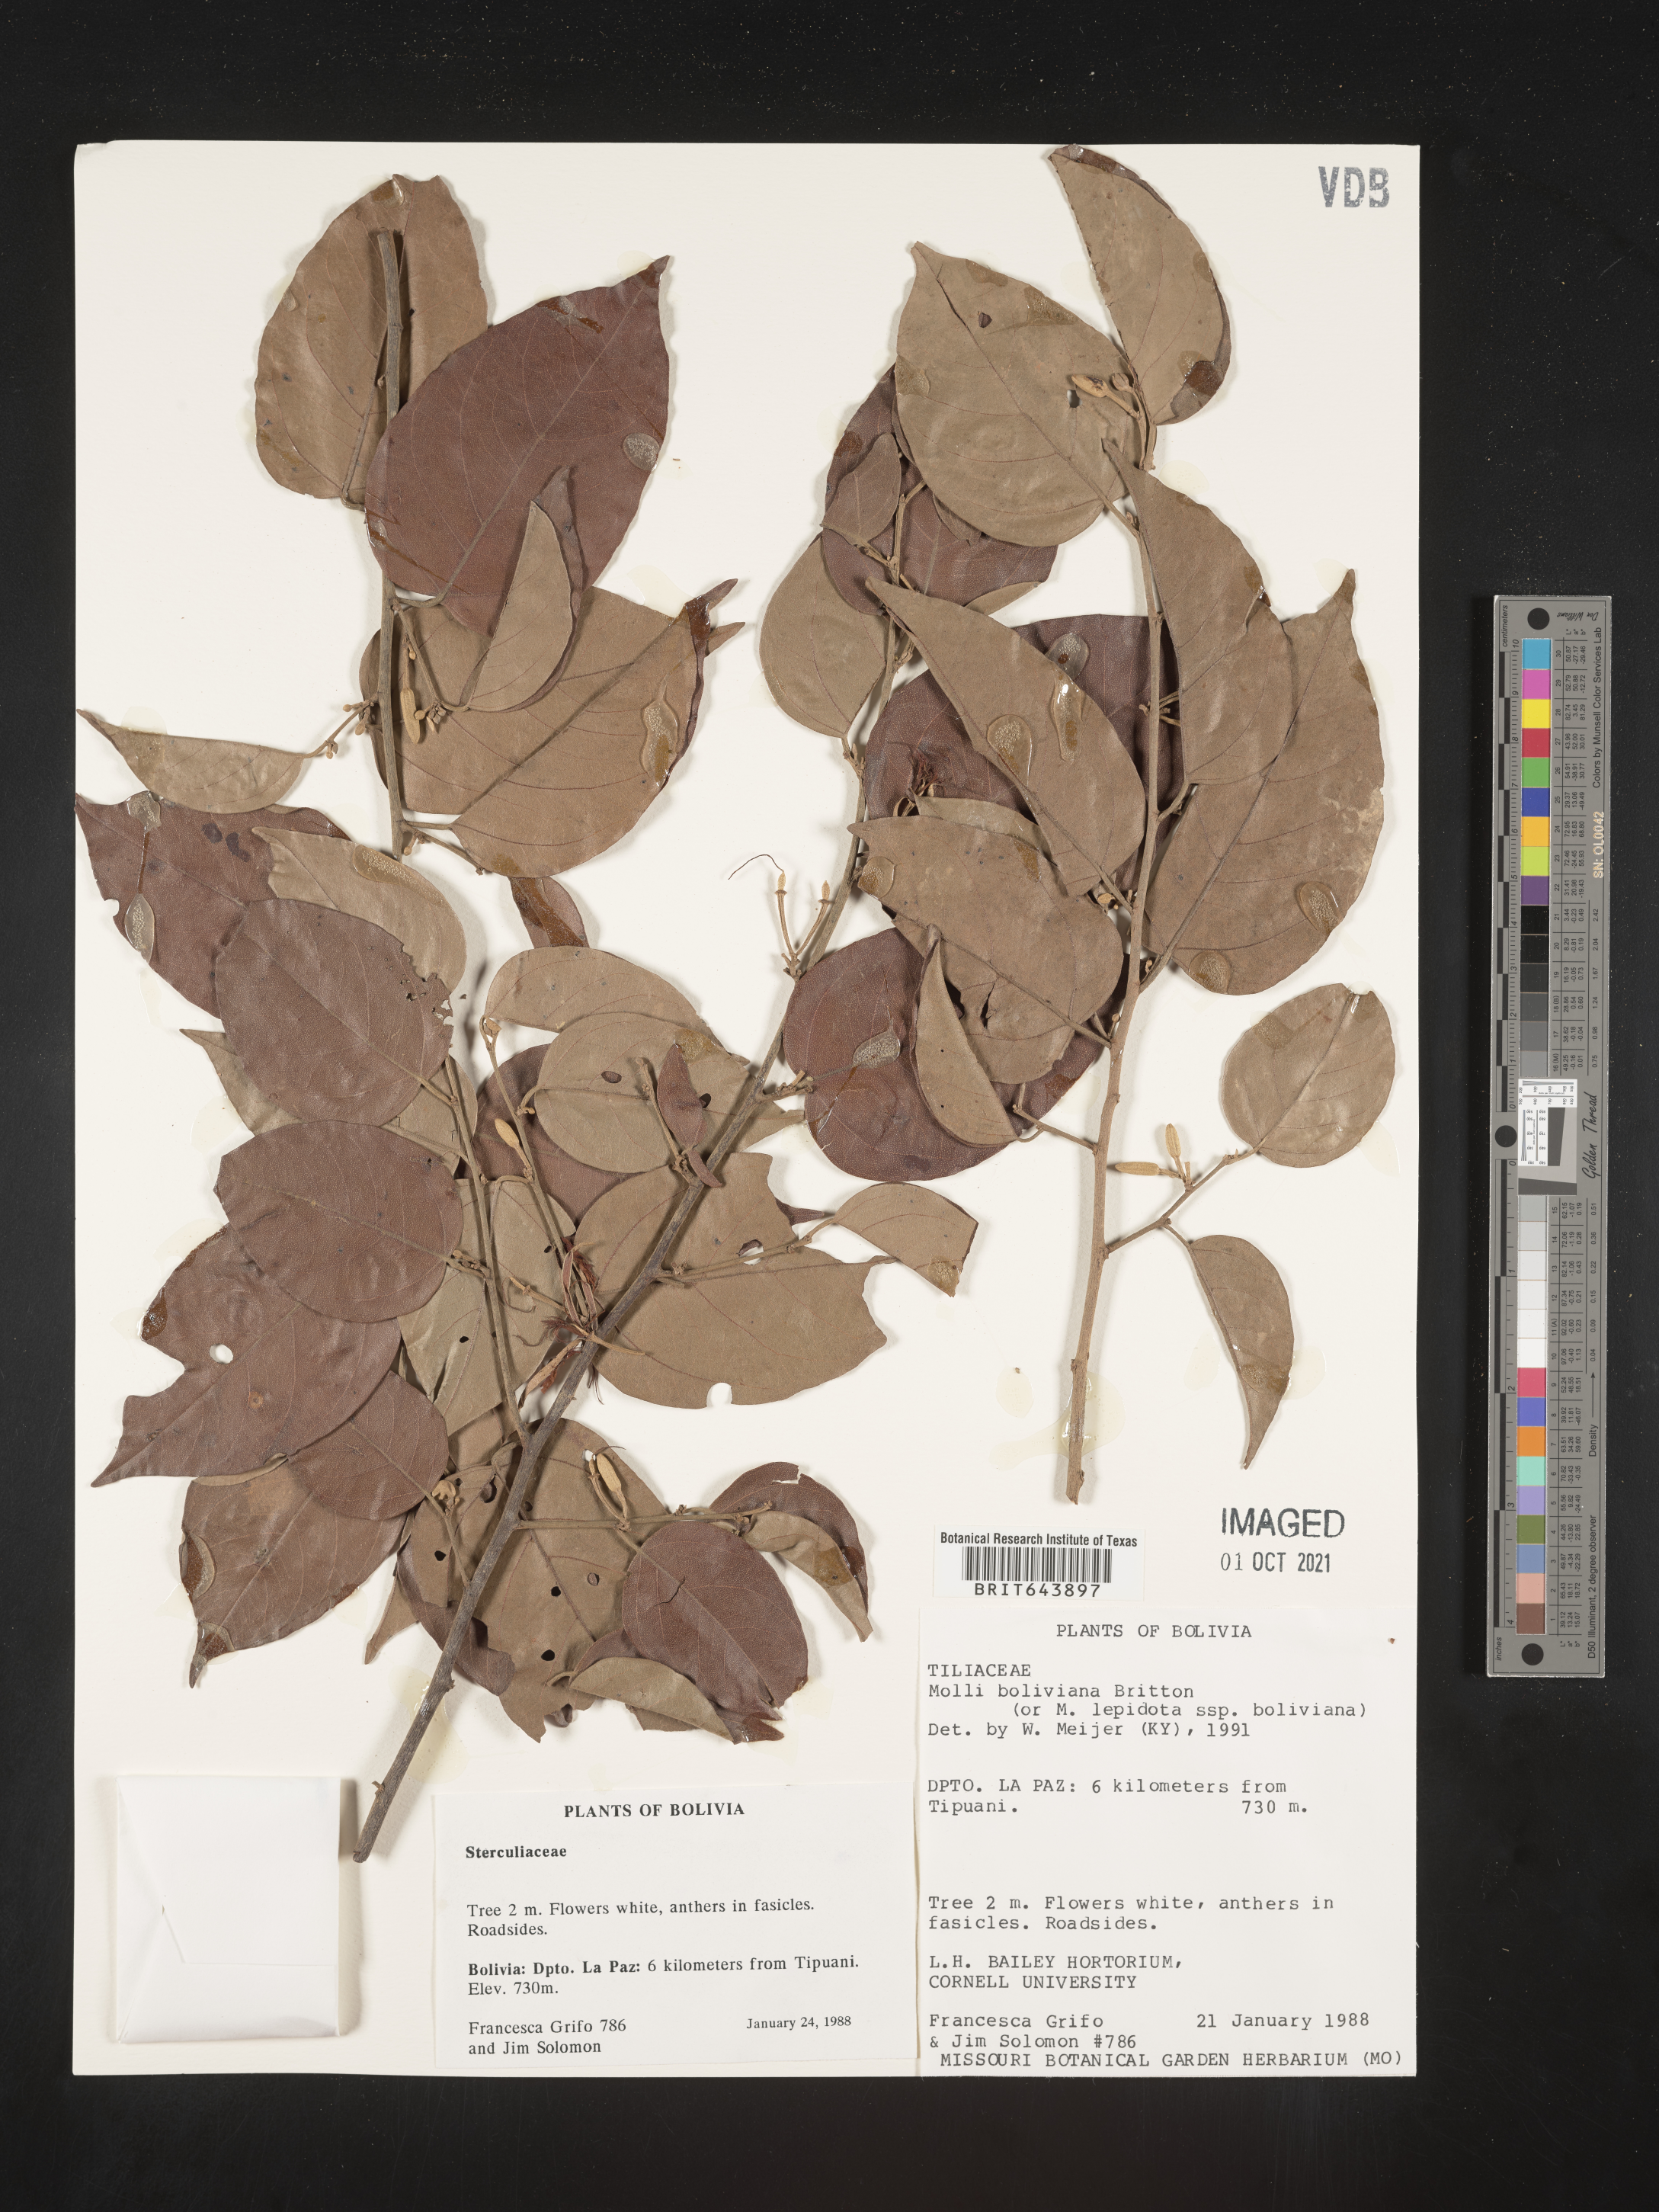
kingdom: Plantae
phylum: Tracheophyta
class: Magnoliopsida
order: Malvales
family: Malvaceae
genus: Mollia
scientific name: Mollia
